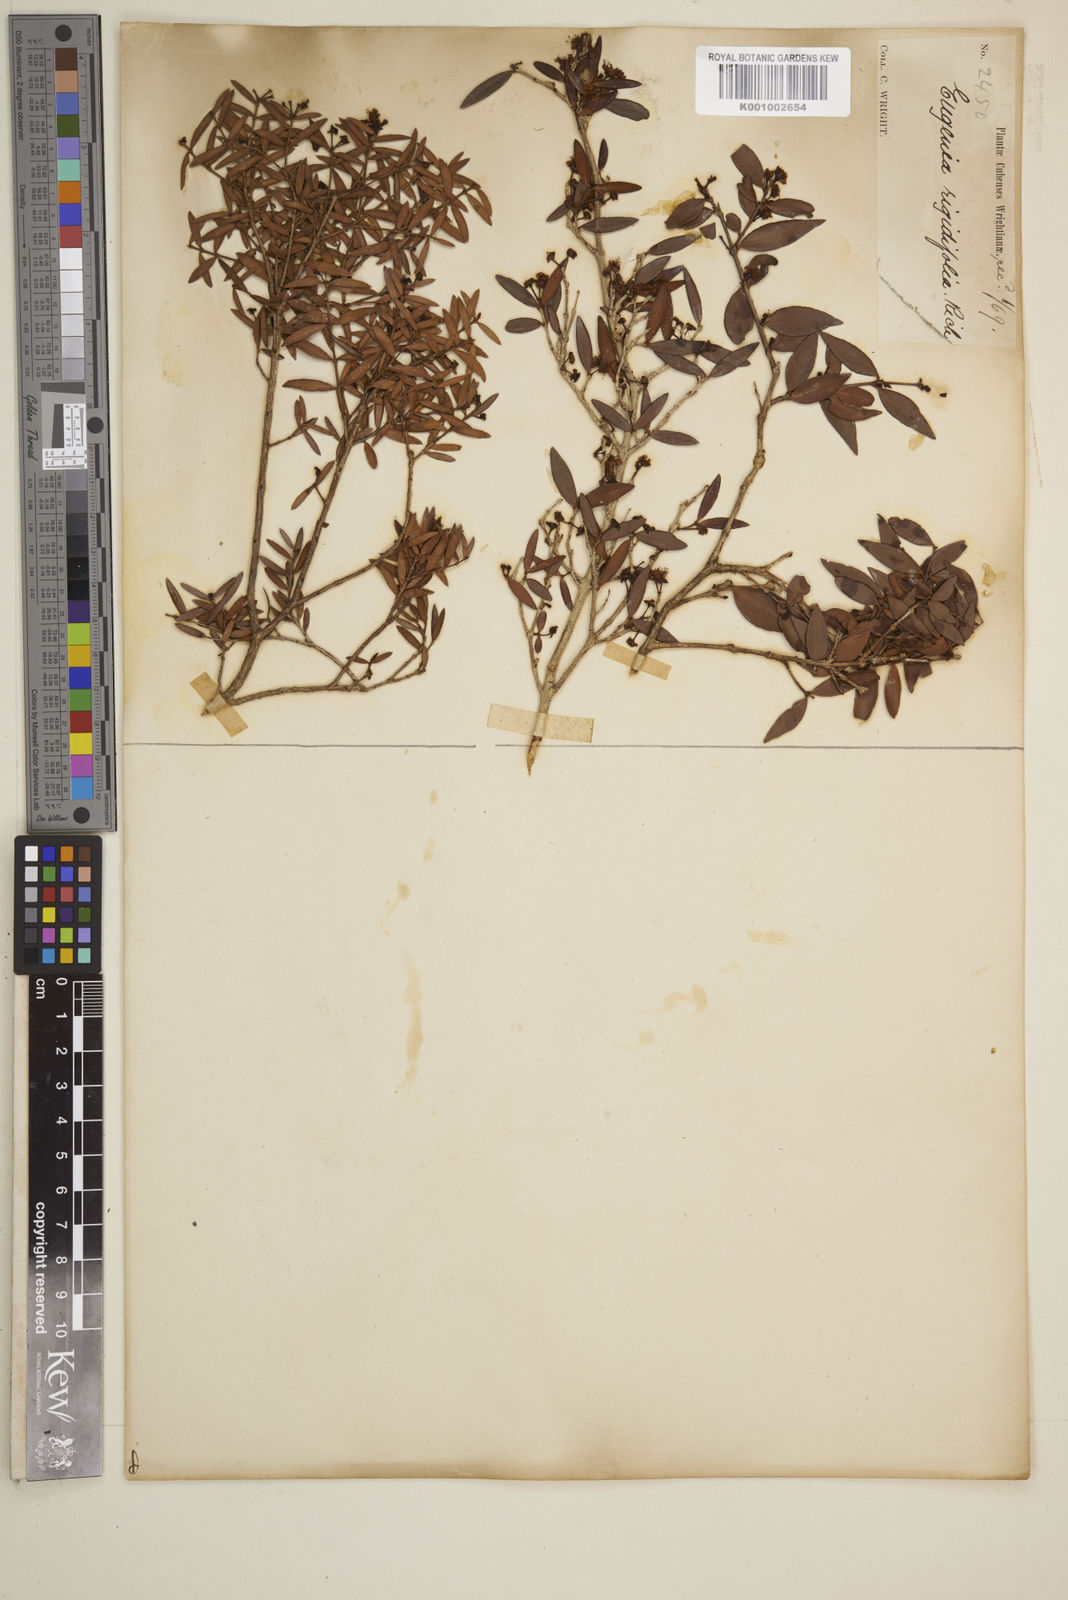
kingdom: Plantae
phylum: Tracheophyta
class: Magnoliopsida
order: Myrtales
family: Myrtaceae
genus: Eugenia
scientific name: Eugenia rigidifolia
